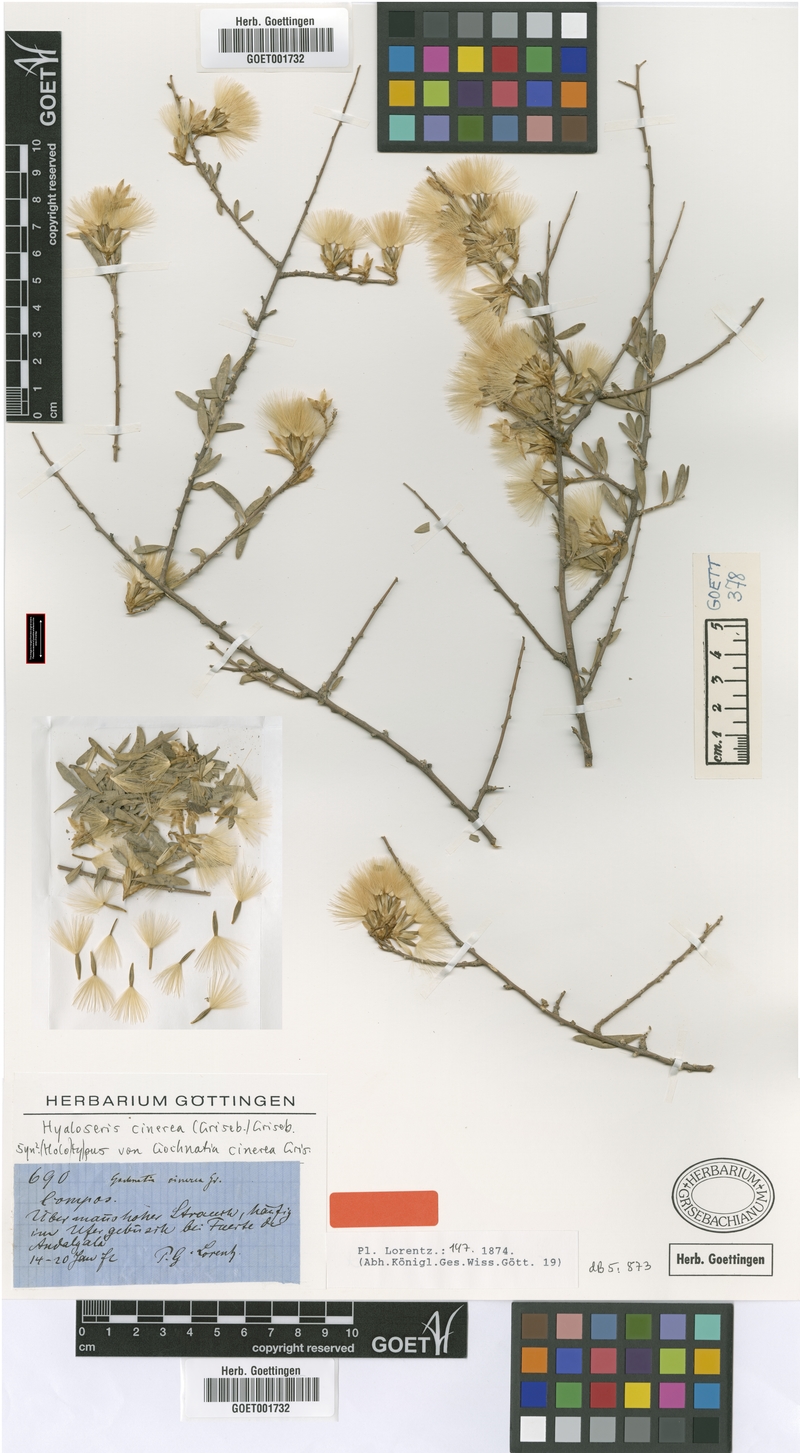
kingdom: Plantae
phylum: Tracheophyta
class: Magnoliopsida
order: Asterales
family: Asteraceae
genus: Hyaloseris
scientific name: Hyaloseris cinerea
